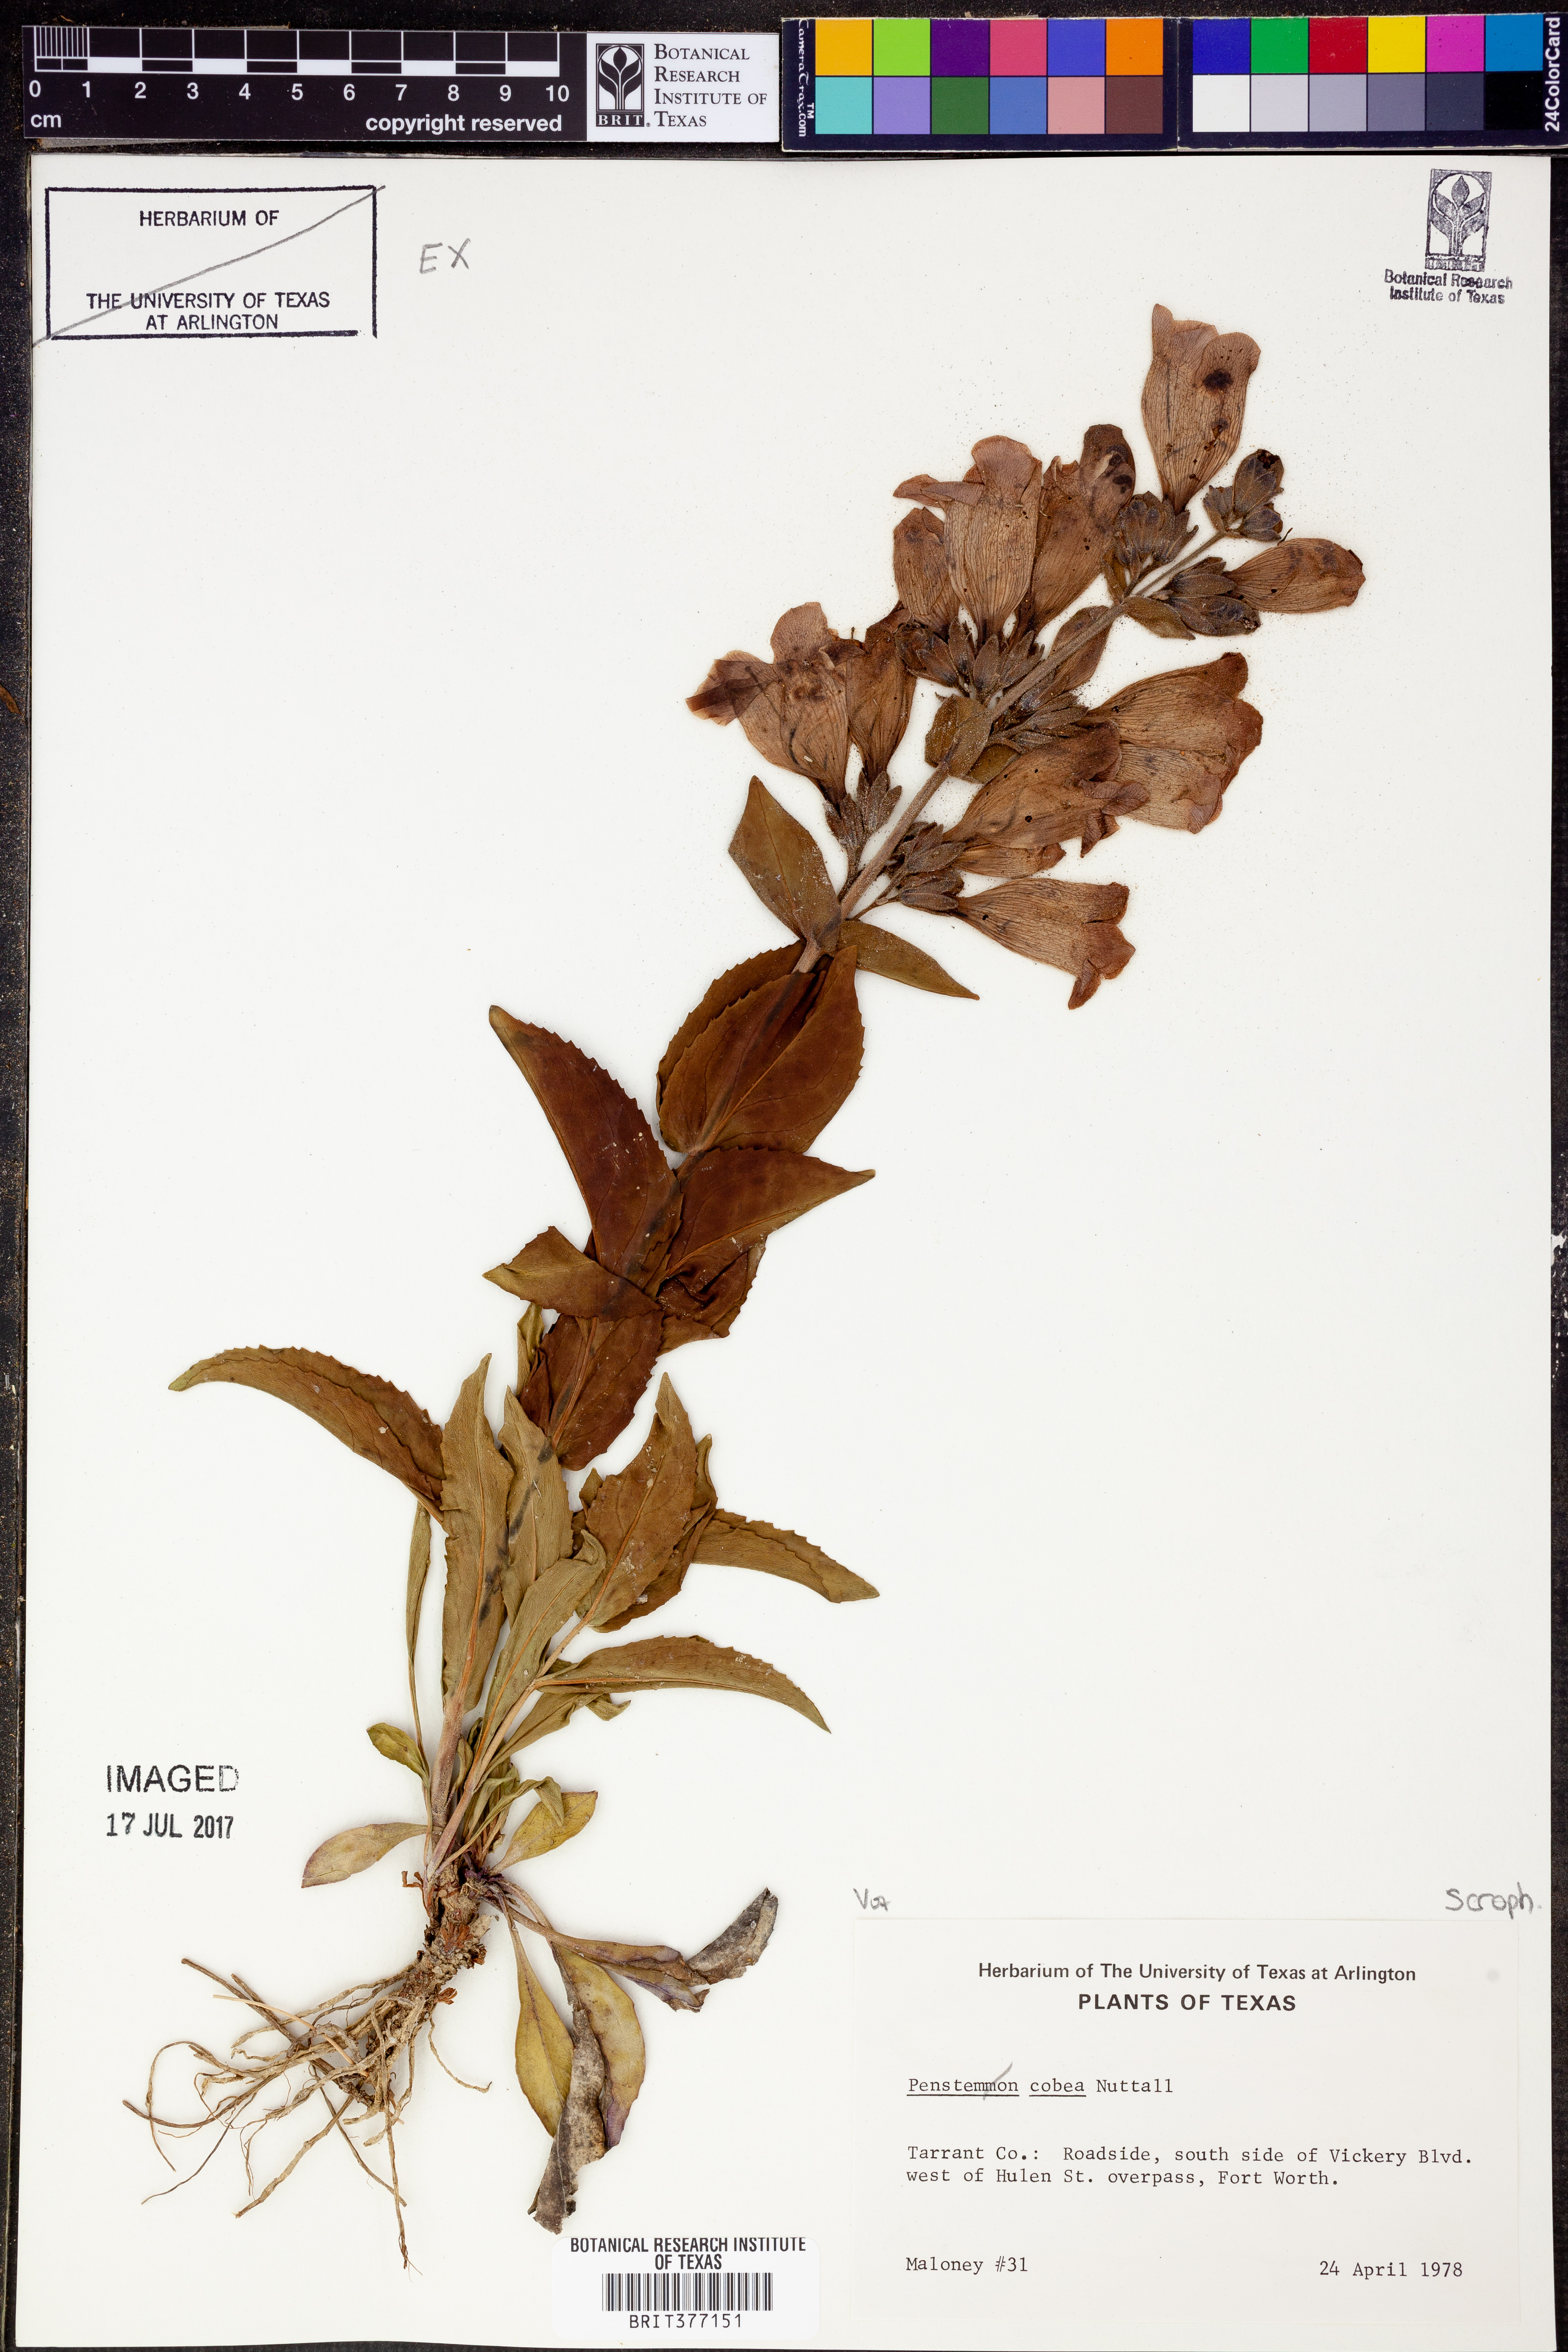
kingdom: Plantae
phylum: Tracheophyta
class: Magnoliopsida
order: Lamiales
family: Plantaginaceae
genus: Penstemon
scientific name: Penstemon cobaea
